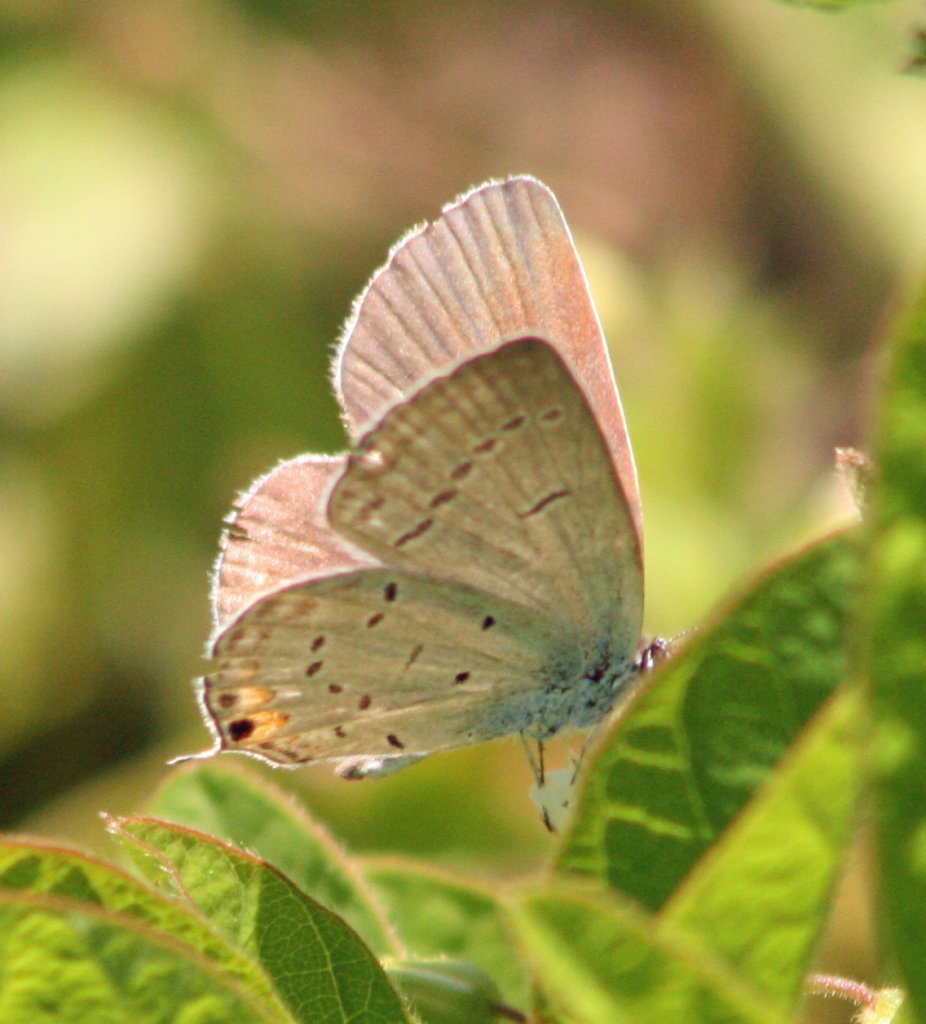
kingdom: Animalia
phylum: Arthropoda
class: Insecta
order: Lepidoptera
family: Lycaenidae
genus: Elkalyce
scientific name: Elkalyce comyntas
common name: Eastern Tailed-Blue
